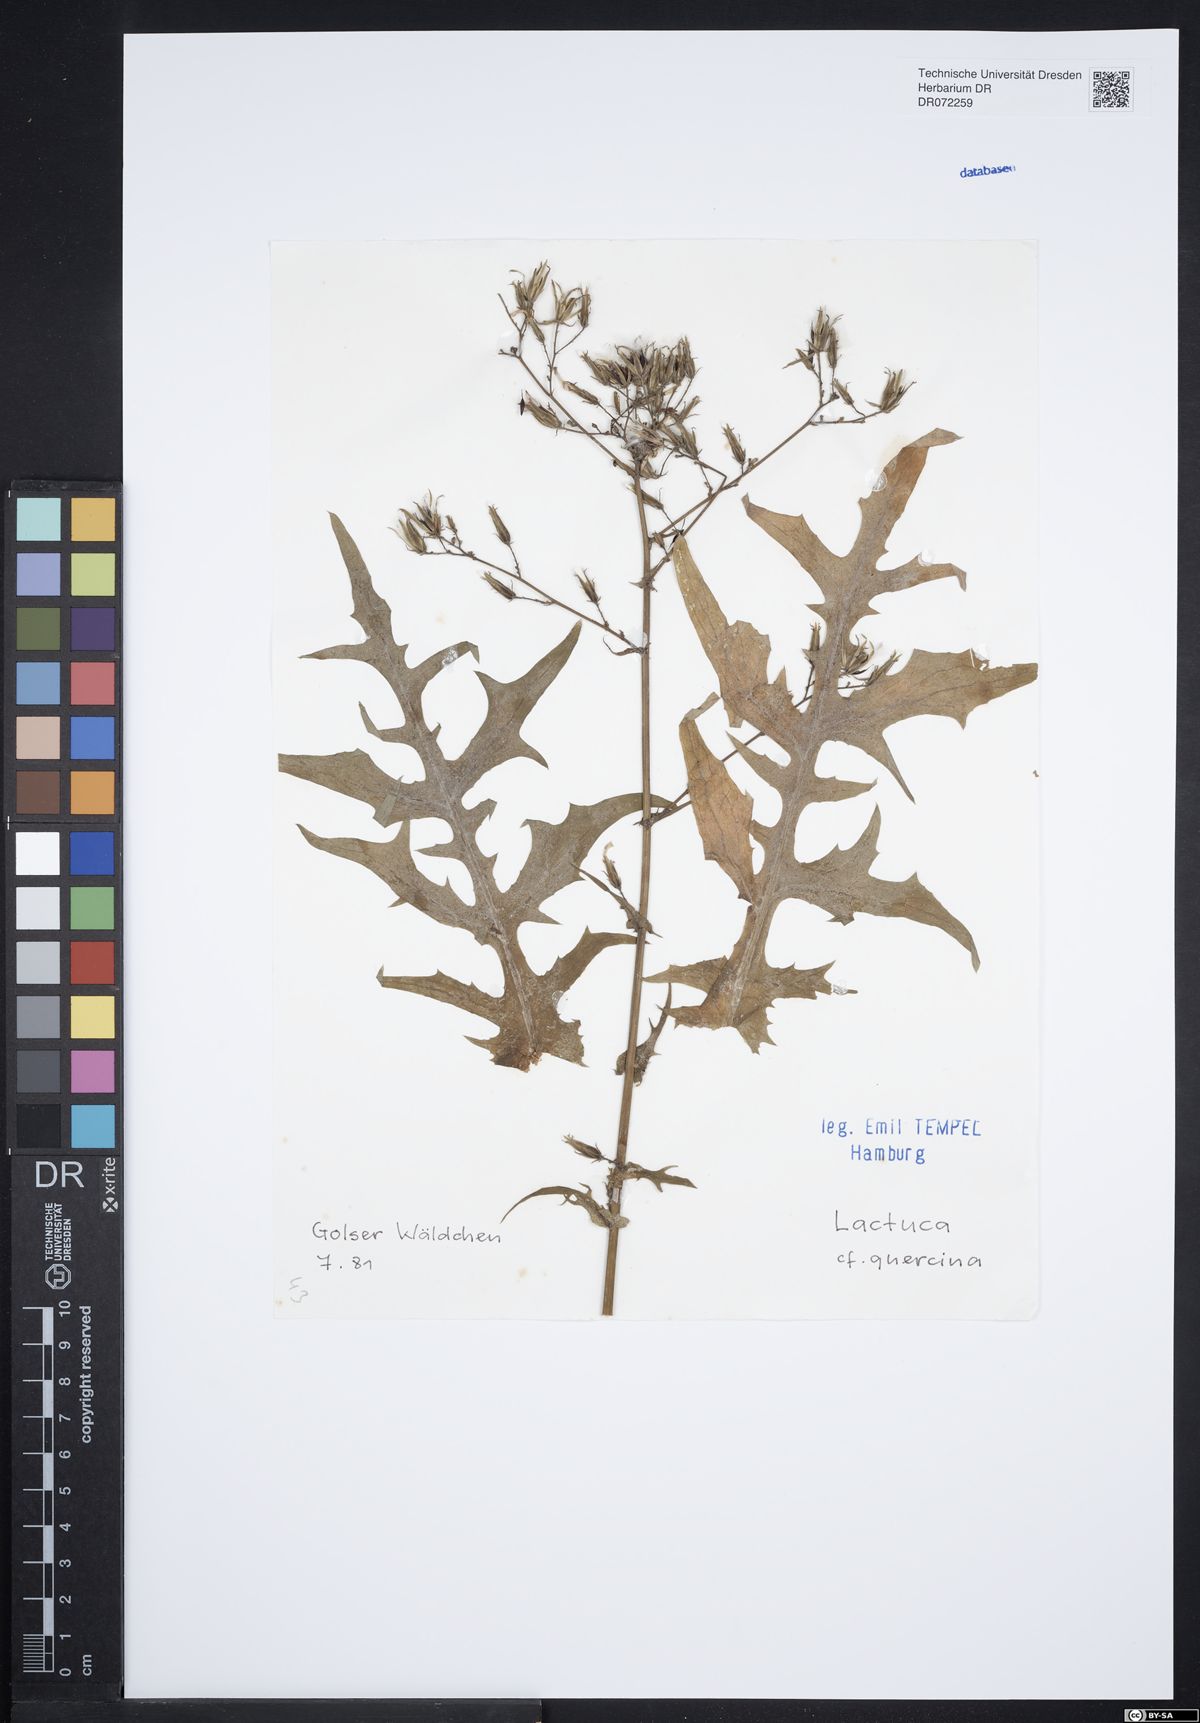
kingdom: Plantae
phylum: Tracheophyta
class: Magnoliopsida
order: Asterales
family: Asteraceae
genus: Lactuca
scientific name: Lactuca quercina
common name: Wild lettuce
